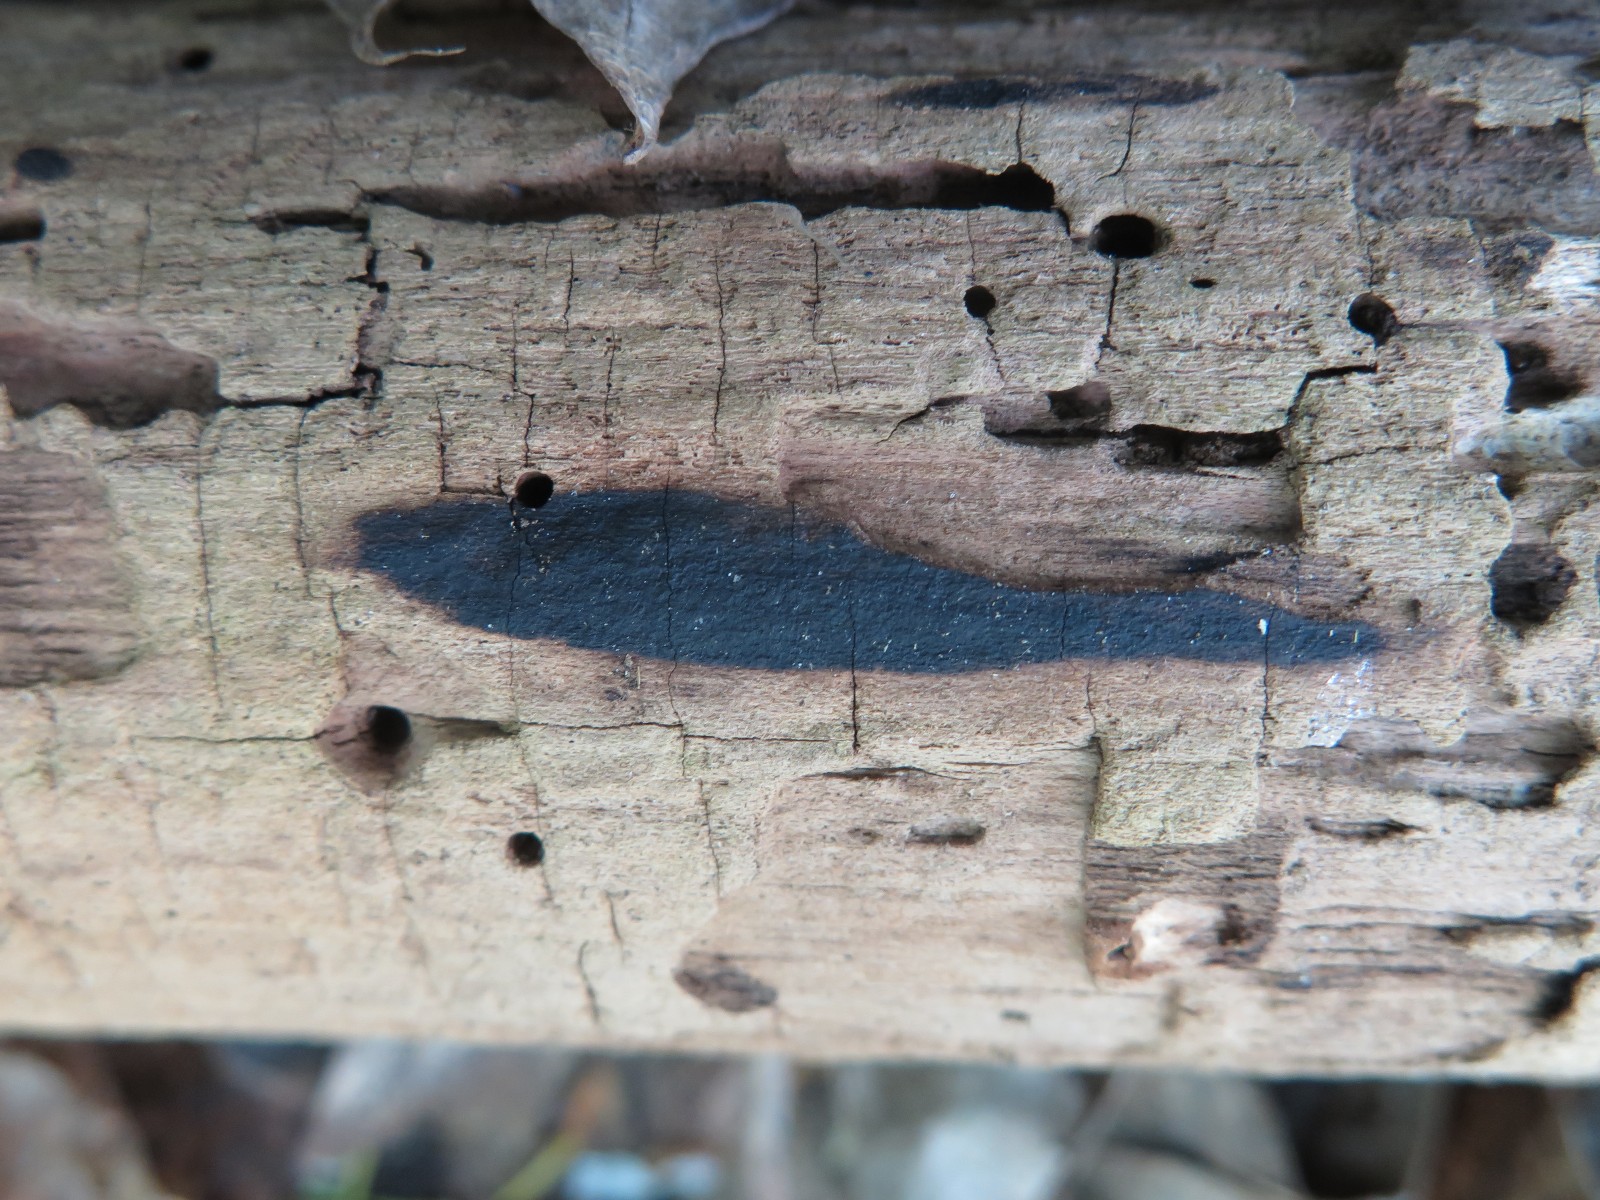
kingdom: Fungi
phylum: Ascomycota
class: Sordariomycetes
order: Xylariales
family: Hypoxylaceae
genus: Hypoxylon
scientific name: Hypoxylon macrocarpum
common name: skorpe-kulbær
